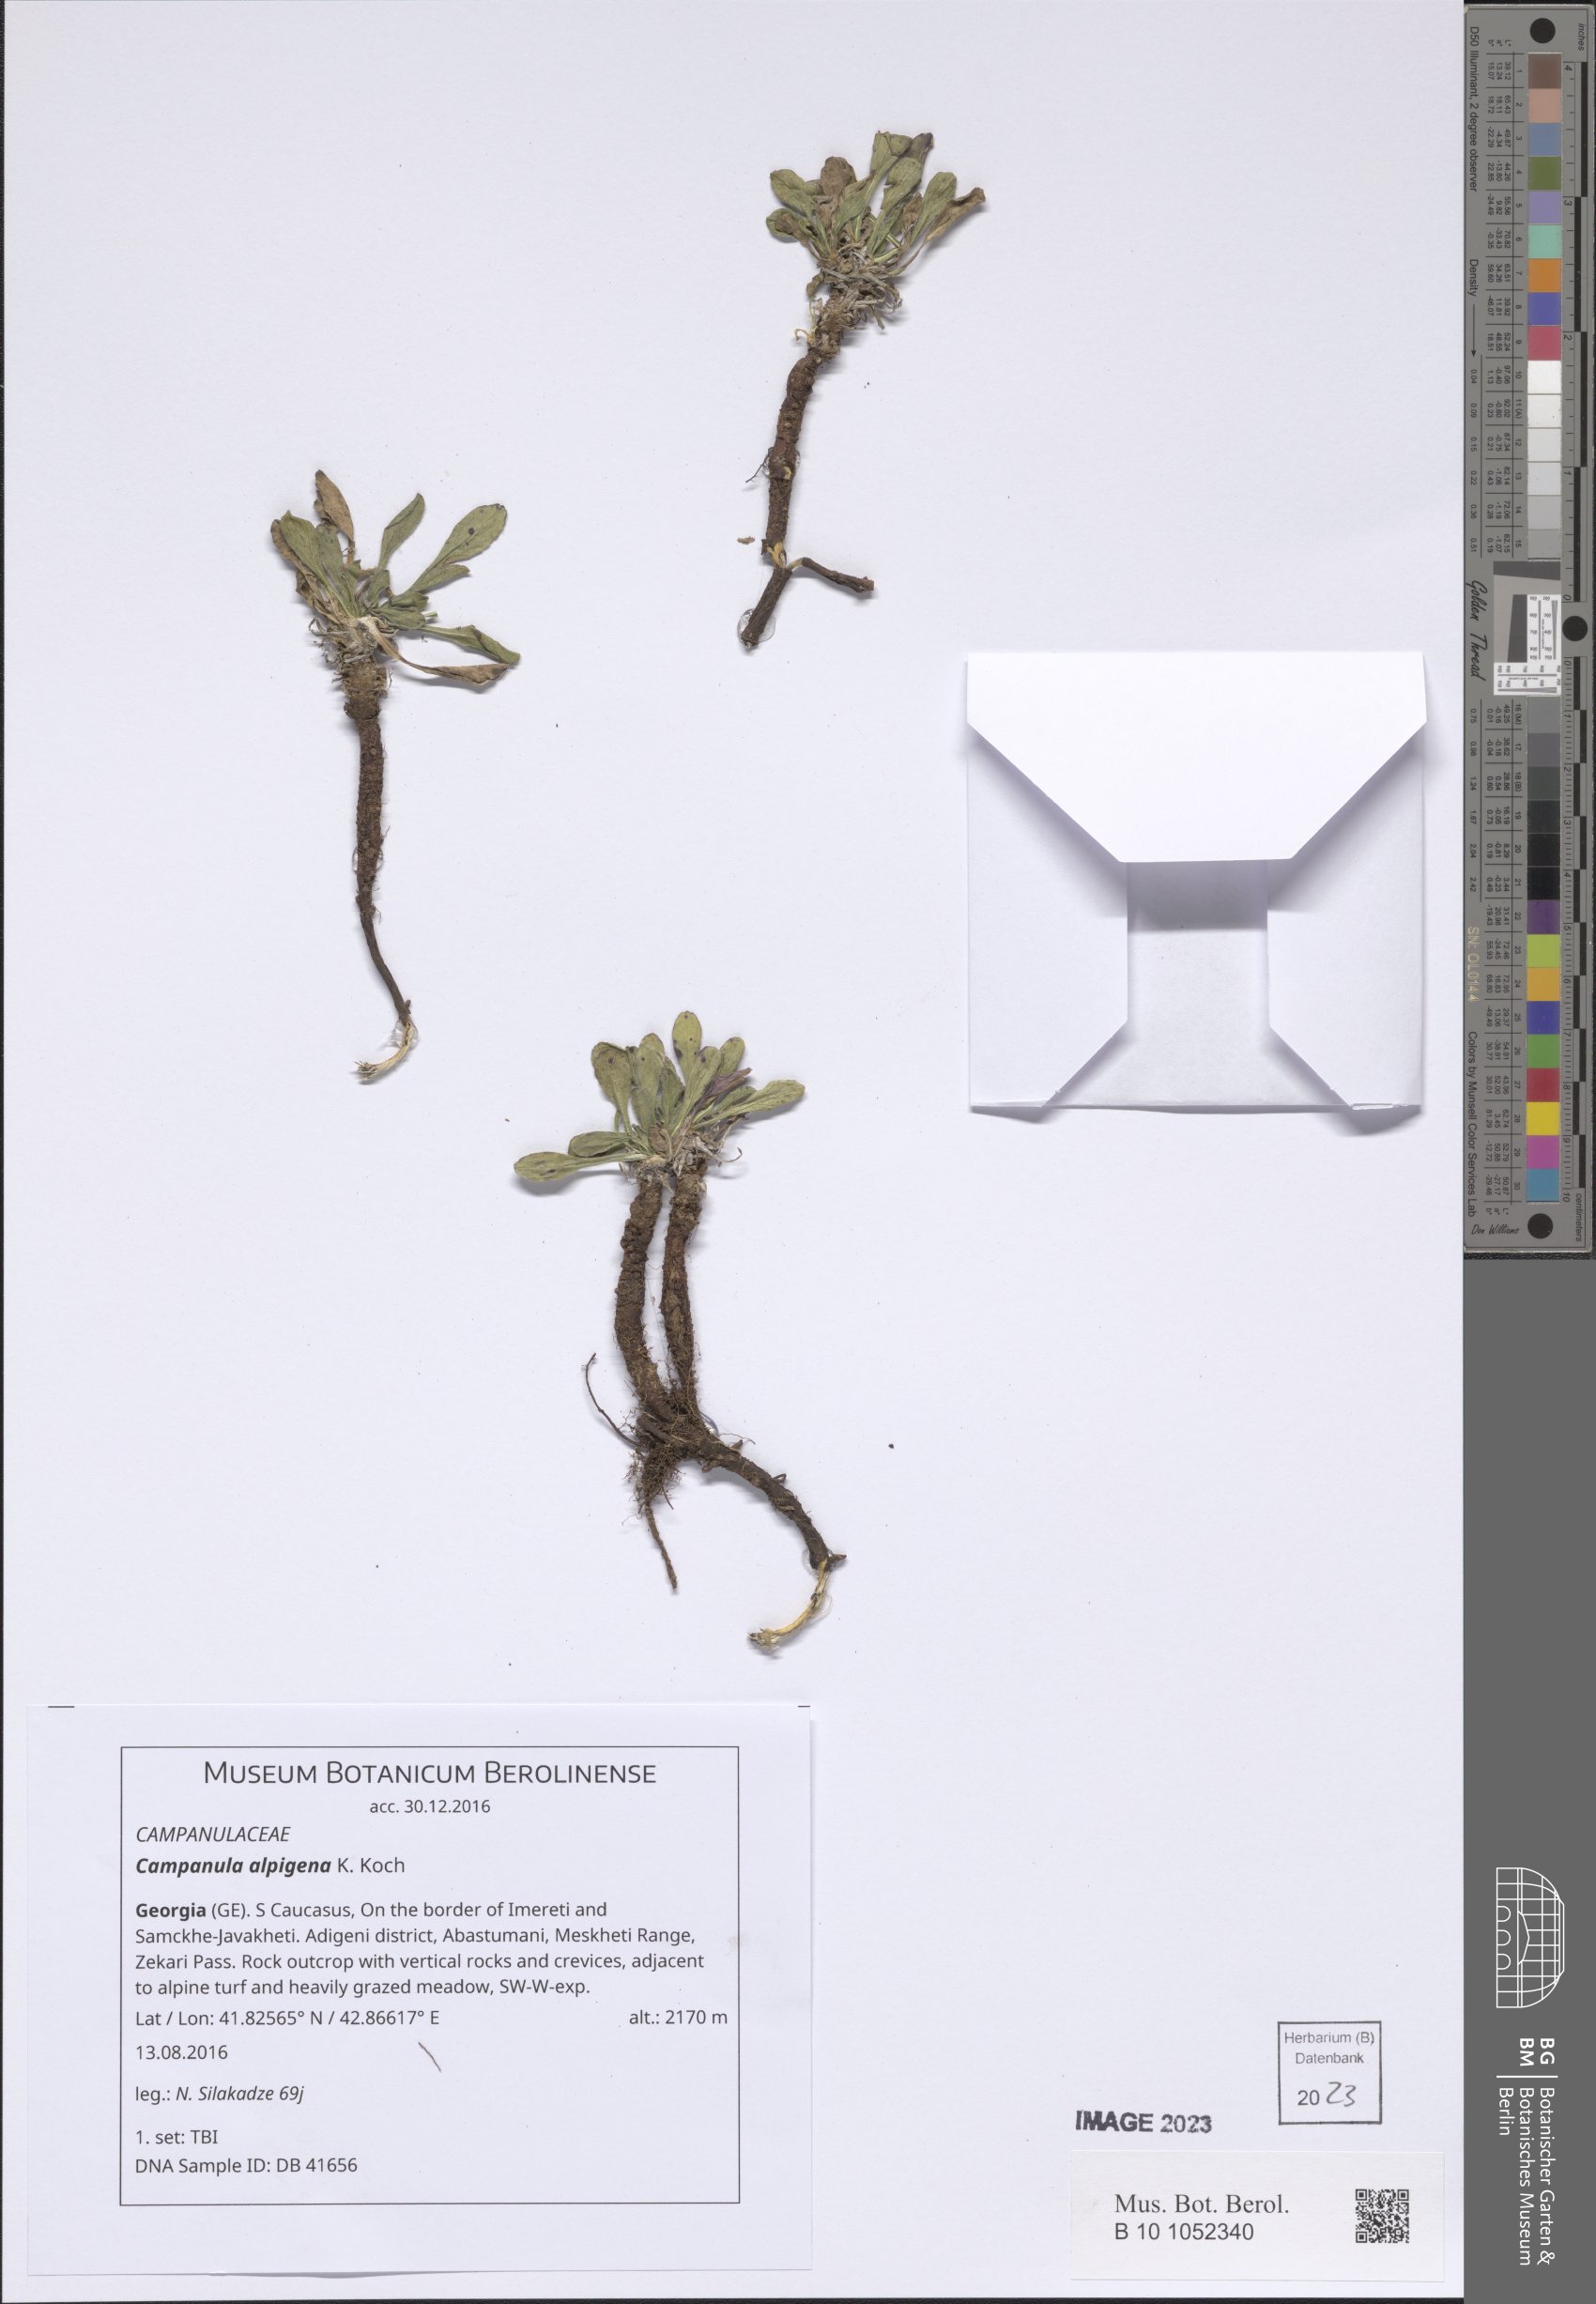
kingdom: Plantae
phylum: Tracheophyta
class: Magnoliopsida
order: Asterales
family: Campanulaceae
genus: Campanula
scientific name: Campanula saxifraga
